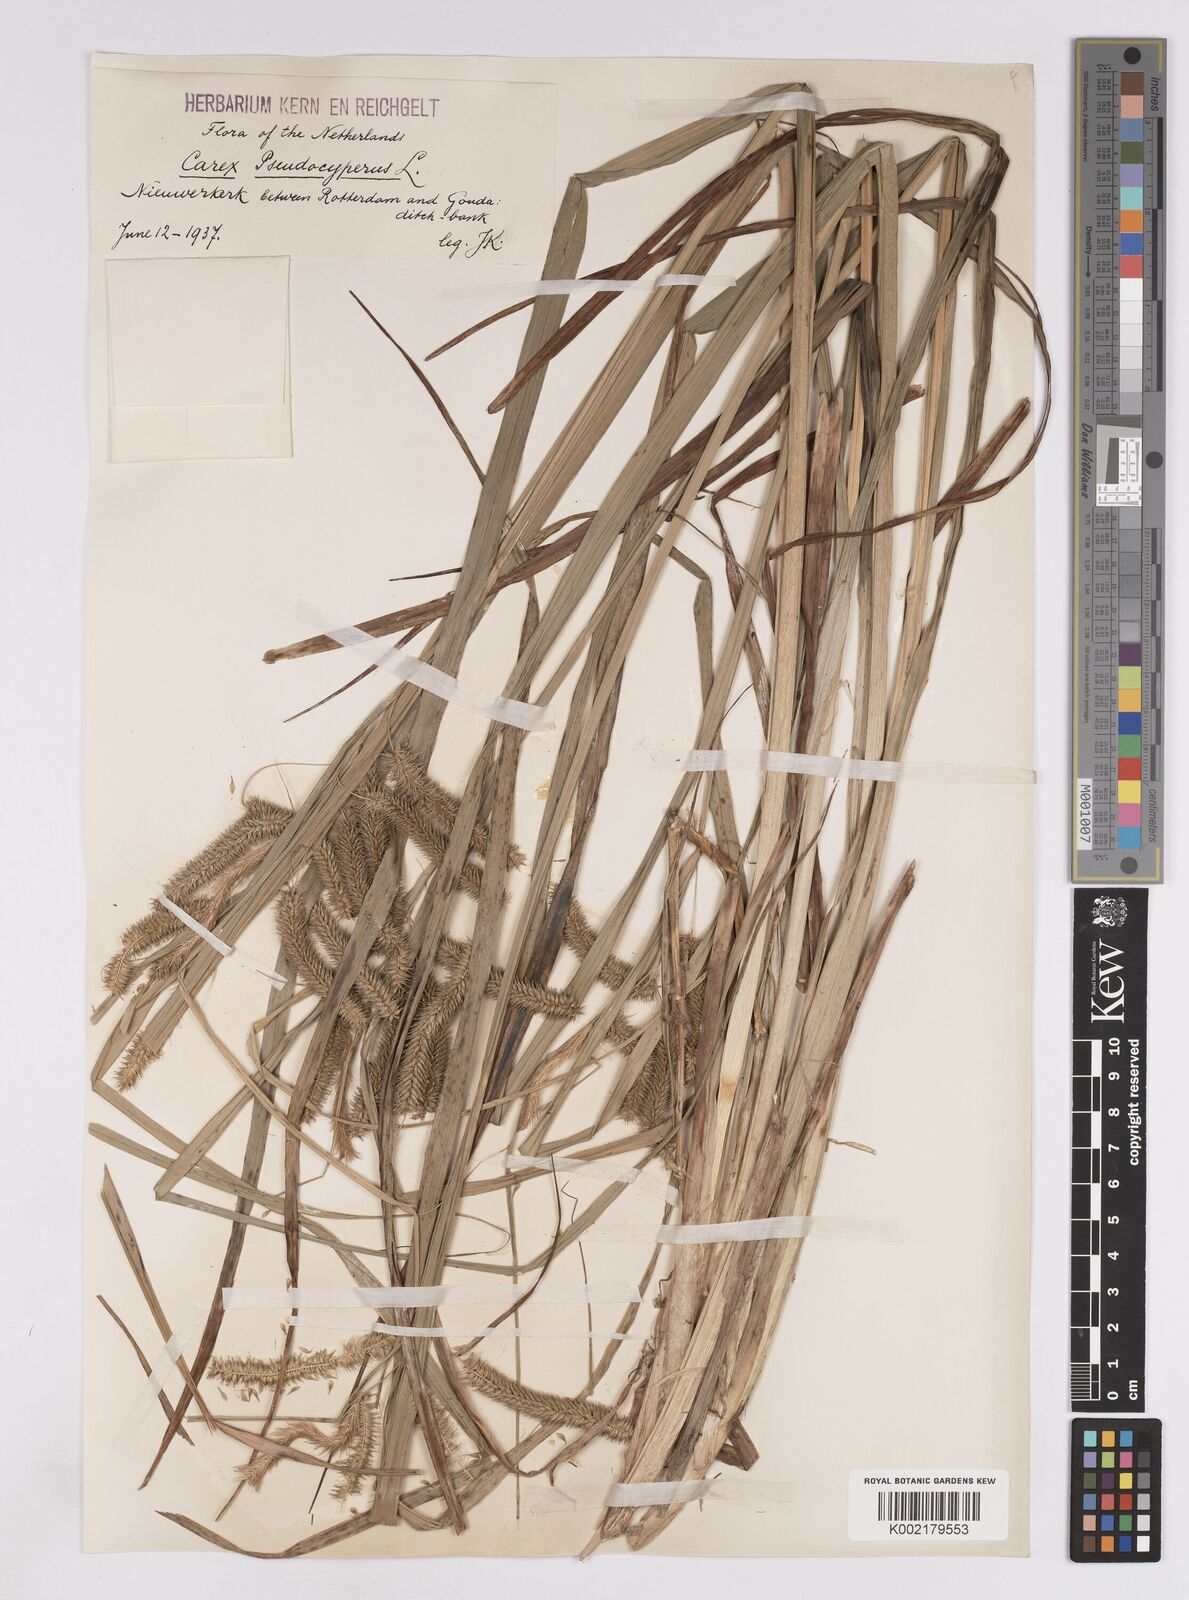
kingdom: Plantae
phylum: Tracheophyta
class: Liliopsida
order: Poales
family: Cyperaceae
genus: Carex
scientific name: Carex pseudocyperus
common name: Cyperus sedge
